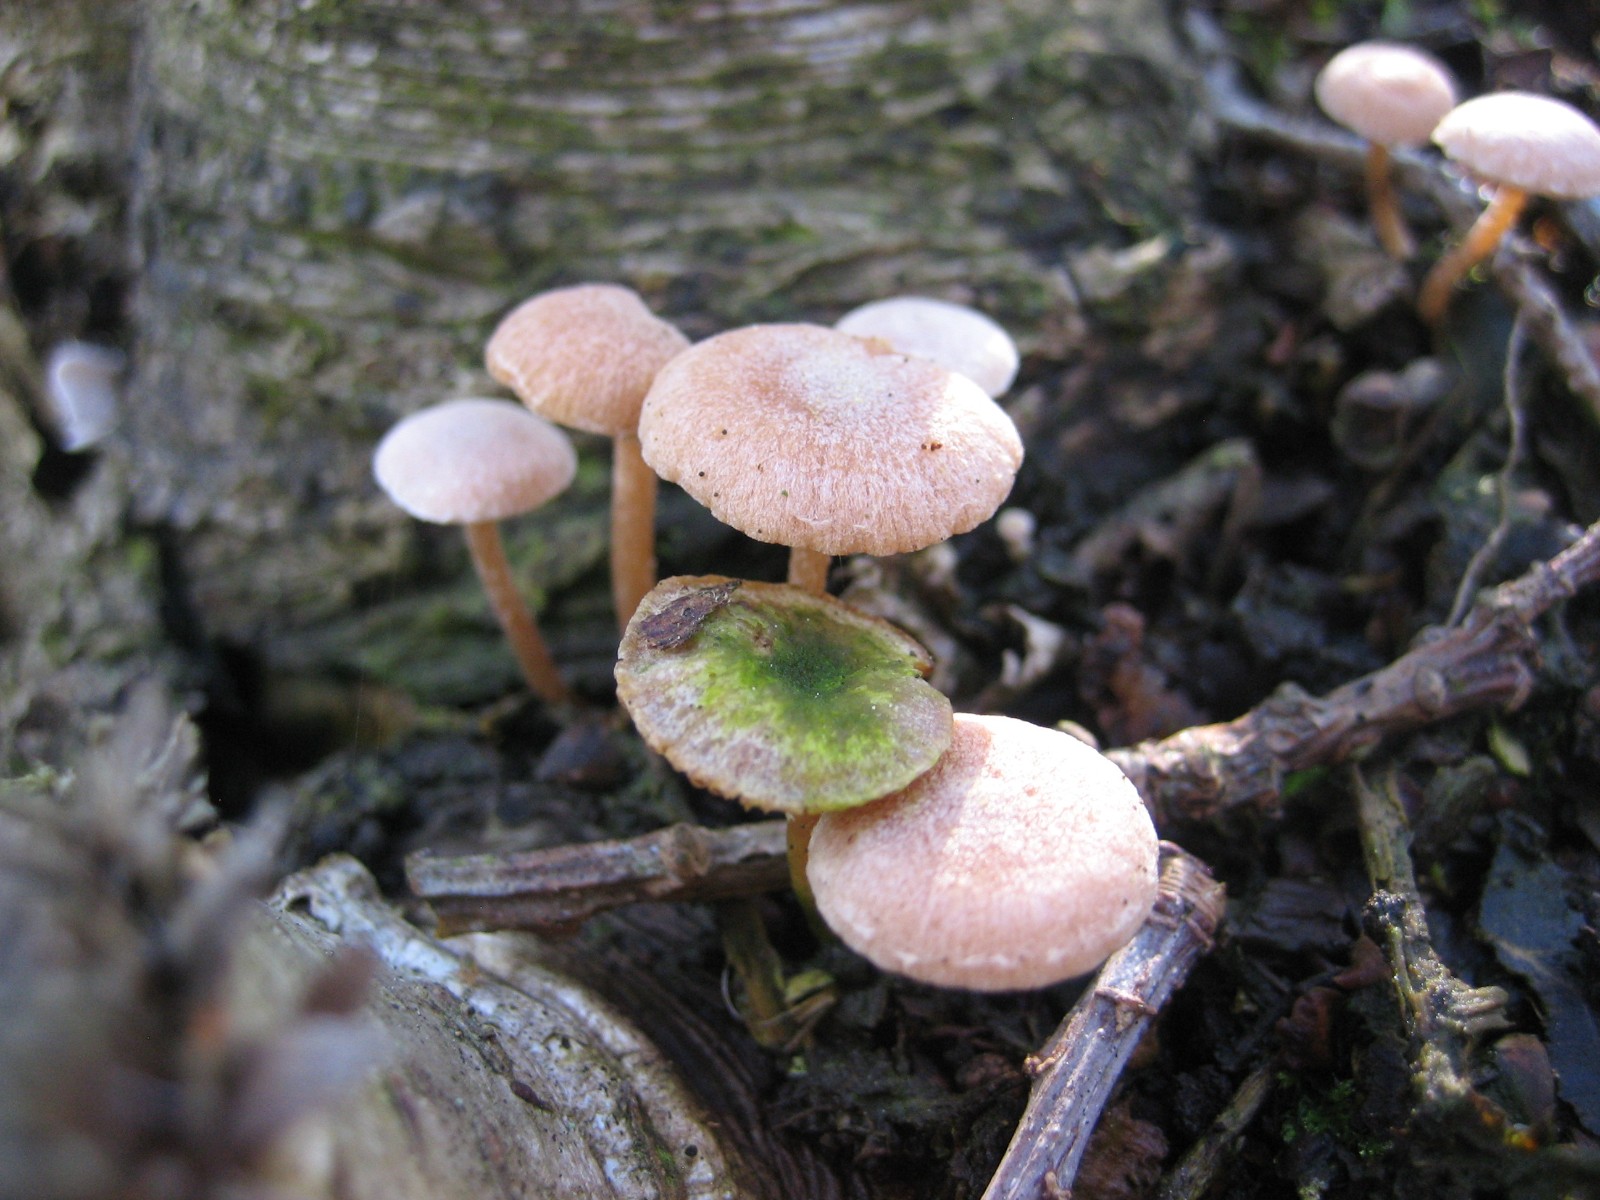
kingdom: Fungi
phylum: Basidiomycota
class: Agaricomycetes
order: Agaricales
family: Omphalotaceae
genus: Collybiopsis
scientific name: Collybiopsis ramealis
